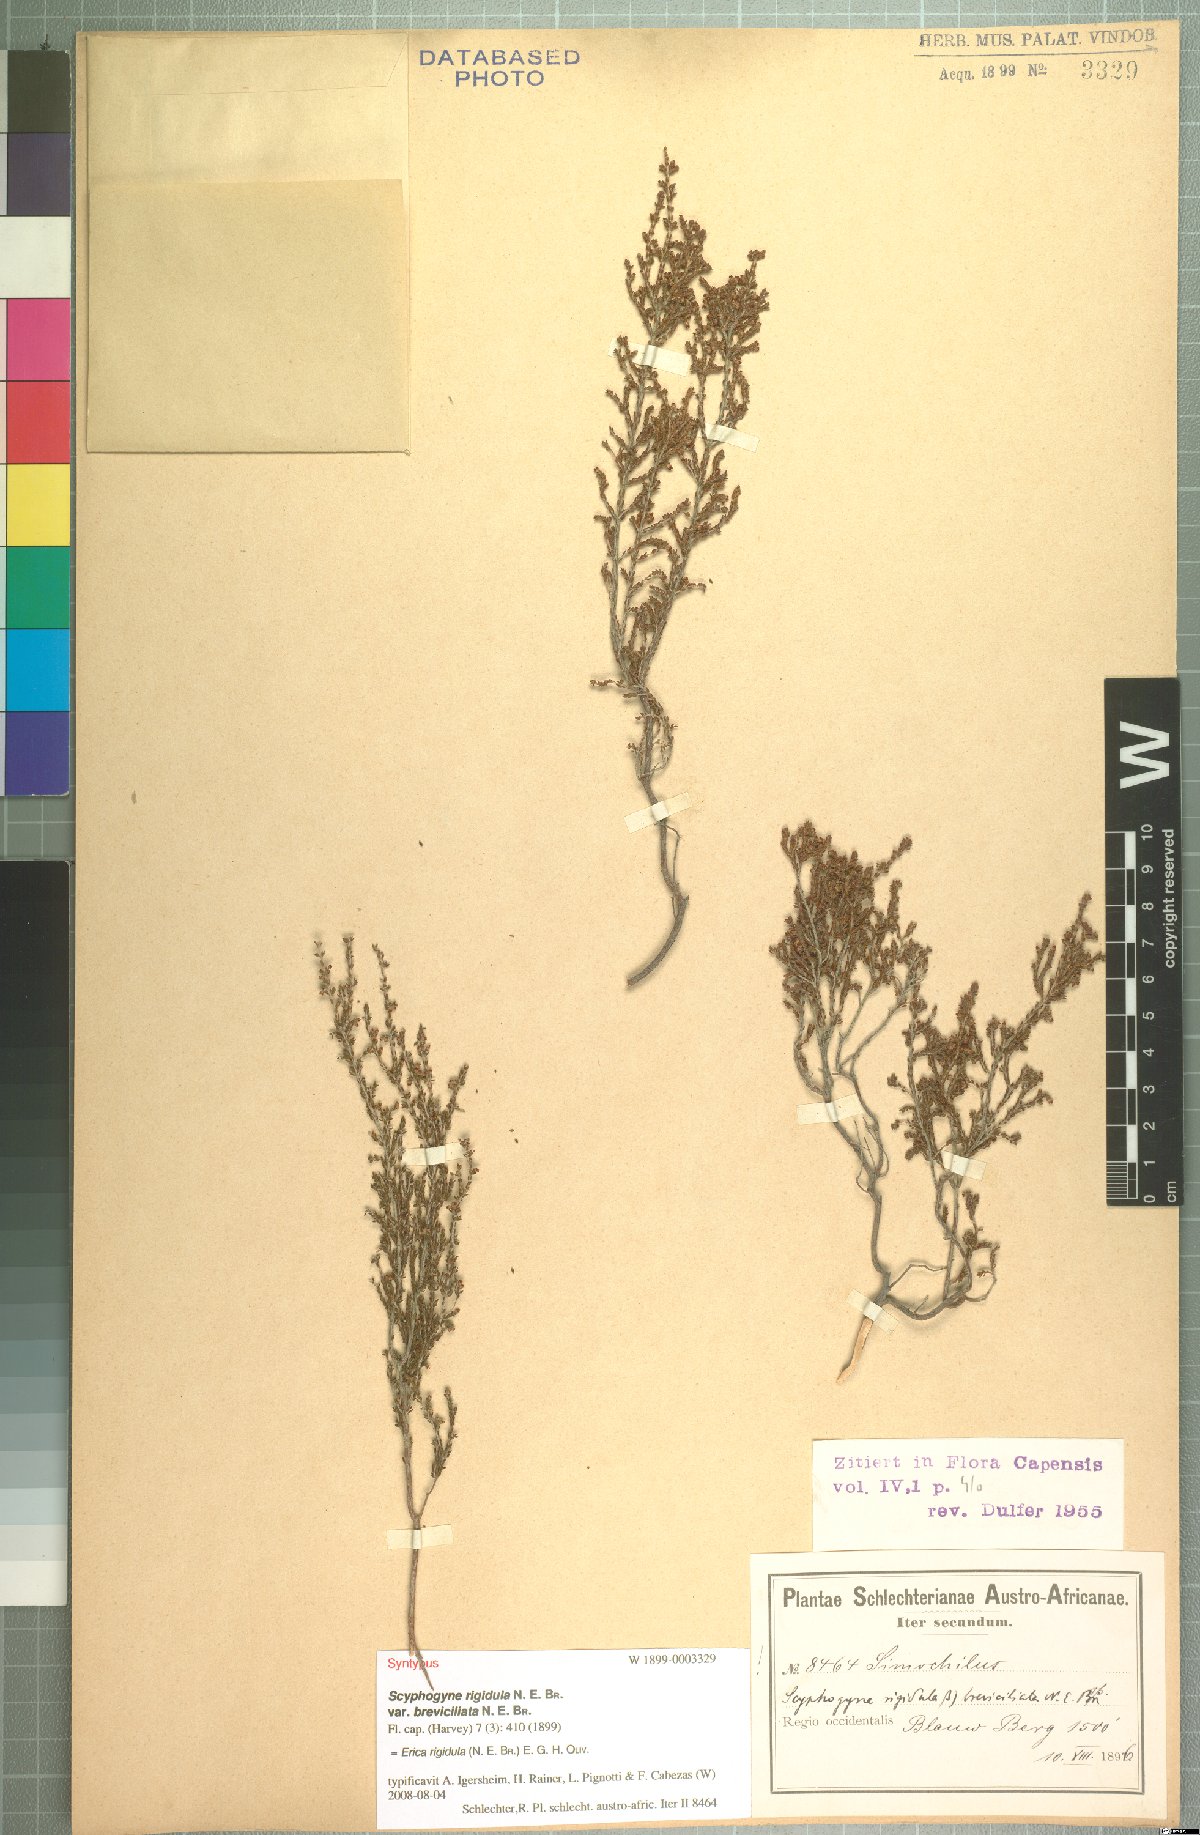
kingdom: Plantae
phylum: Tracheophyta
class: Magnoliopsida
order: Ericales
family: Ericaceae
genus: Erica
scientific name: Erica rigidula
